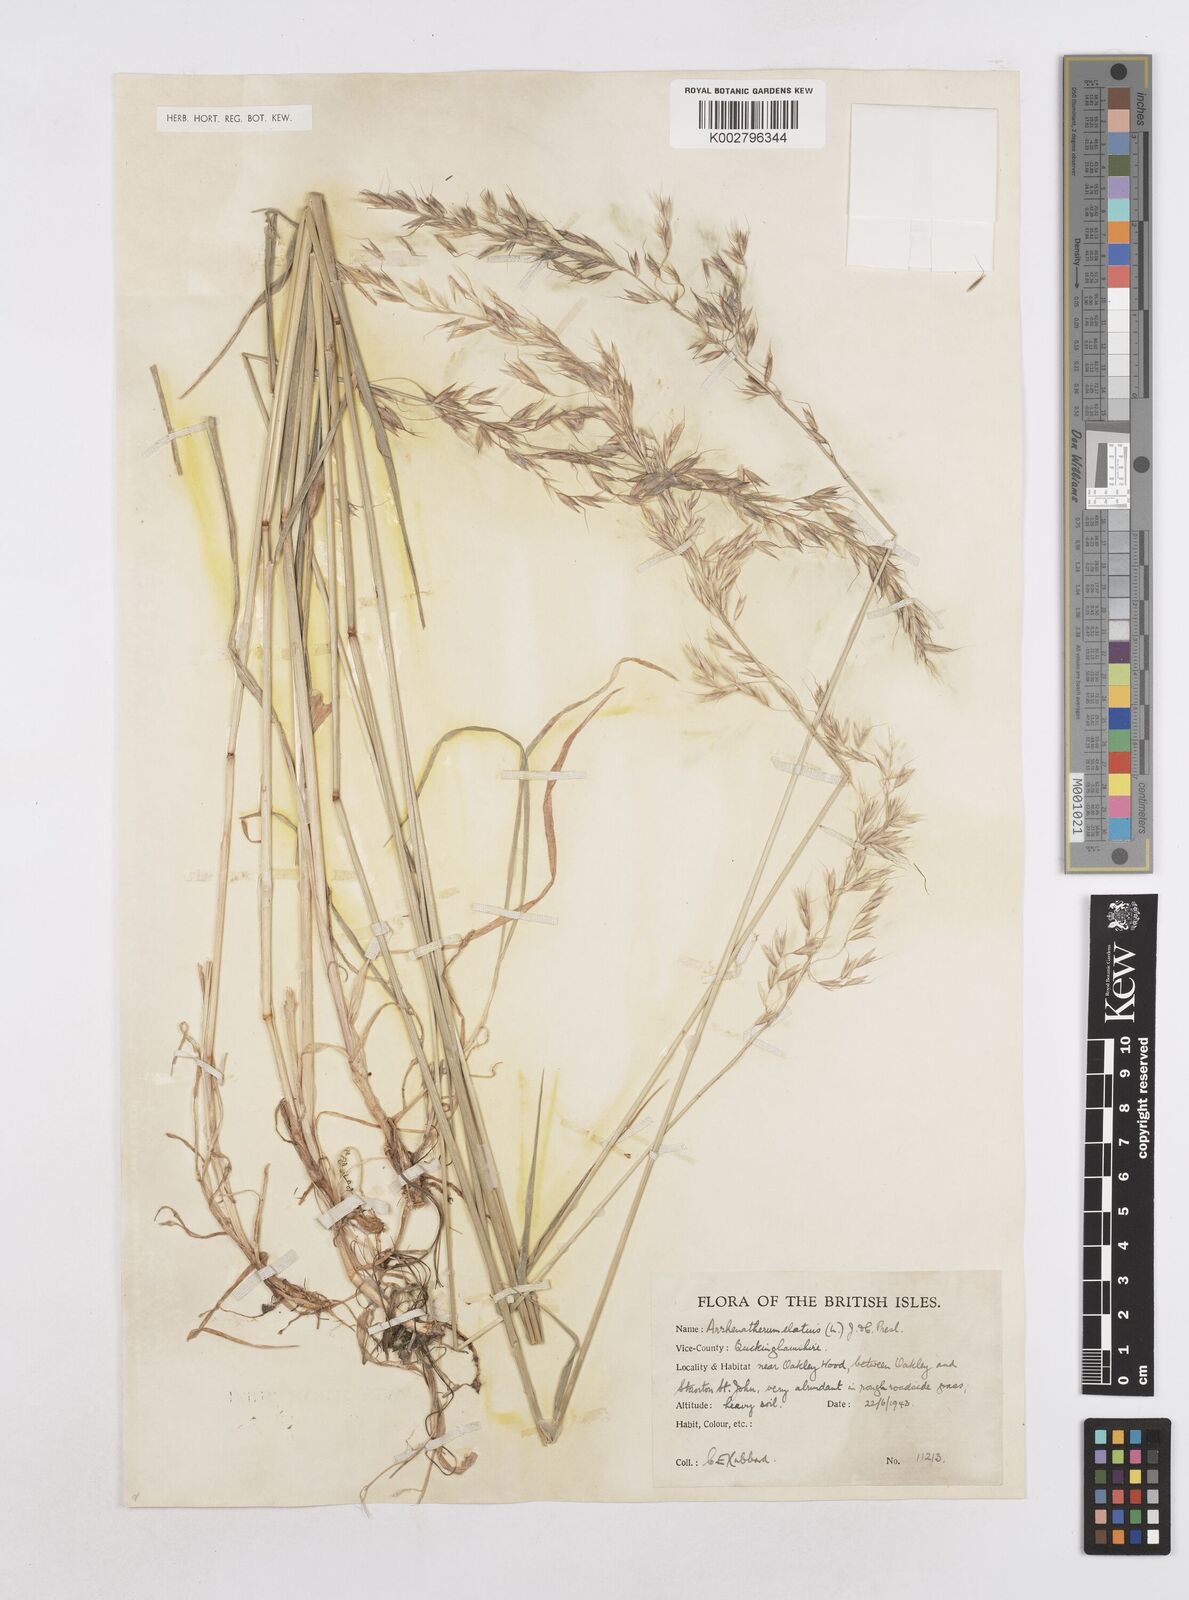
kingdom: Plantae
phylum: Tracheophyta
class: Liliopsida
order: Poales
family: Poaceae
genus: Arrhenatherum
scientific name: Arrhenatherum elatius
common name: Tall oatgrass
